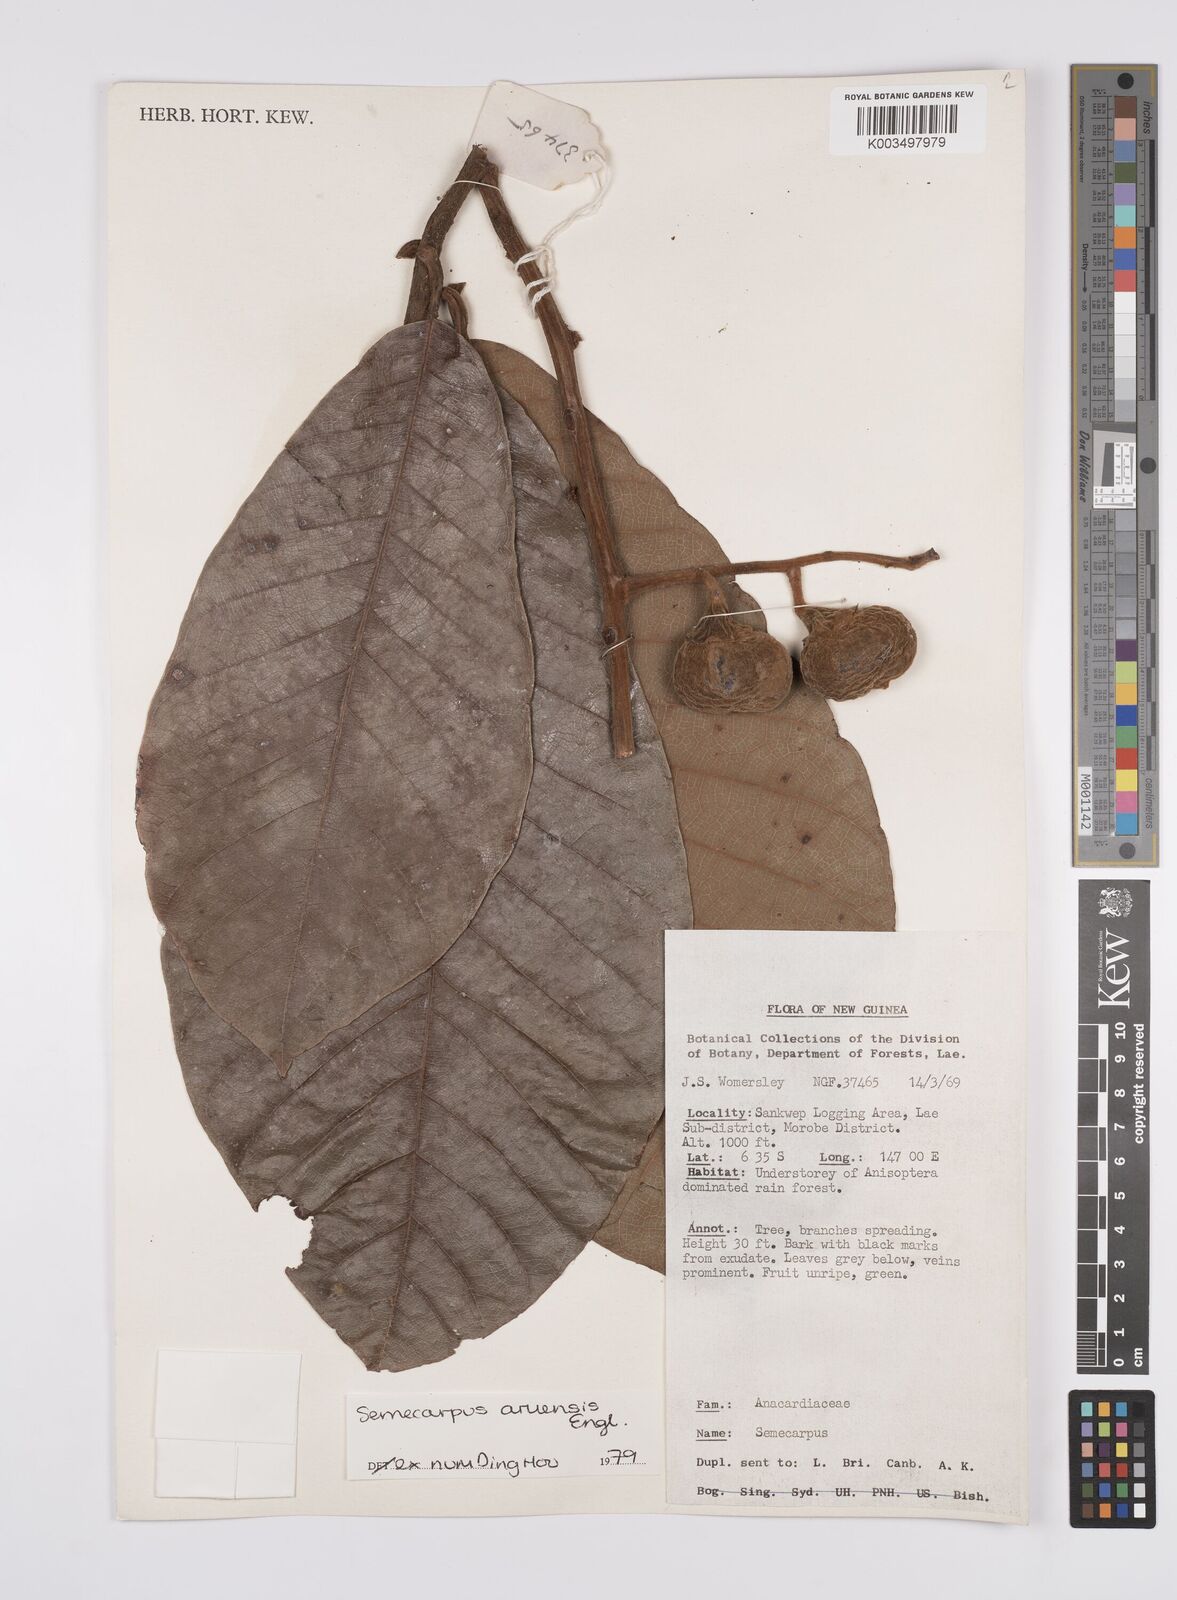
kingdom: Plantae
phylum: Tracheophyta
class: Magnoliopsida
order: Sapindales
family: Anacardiaceae
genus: Semecarpus
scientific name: Semecarpus aruensis
